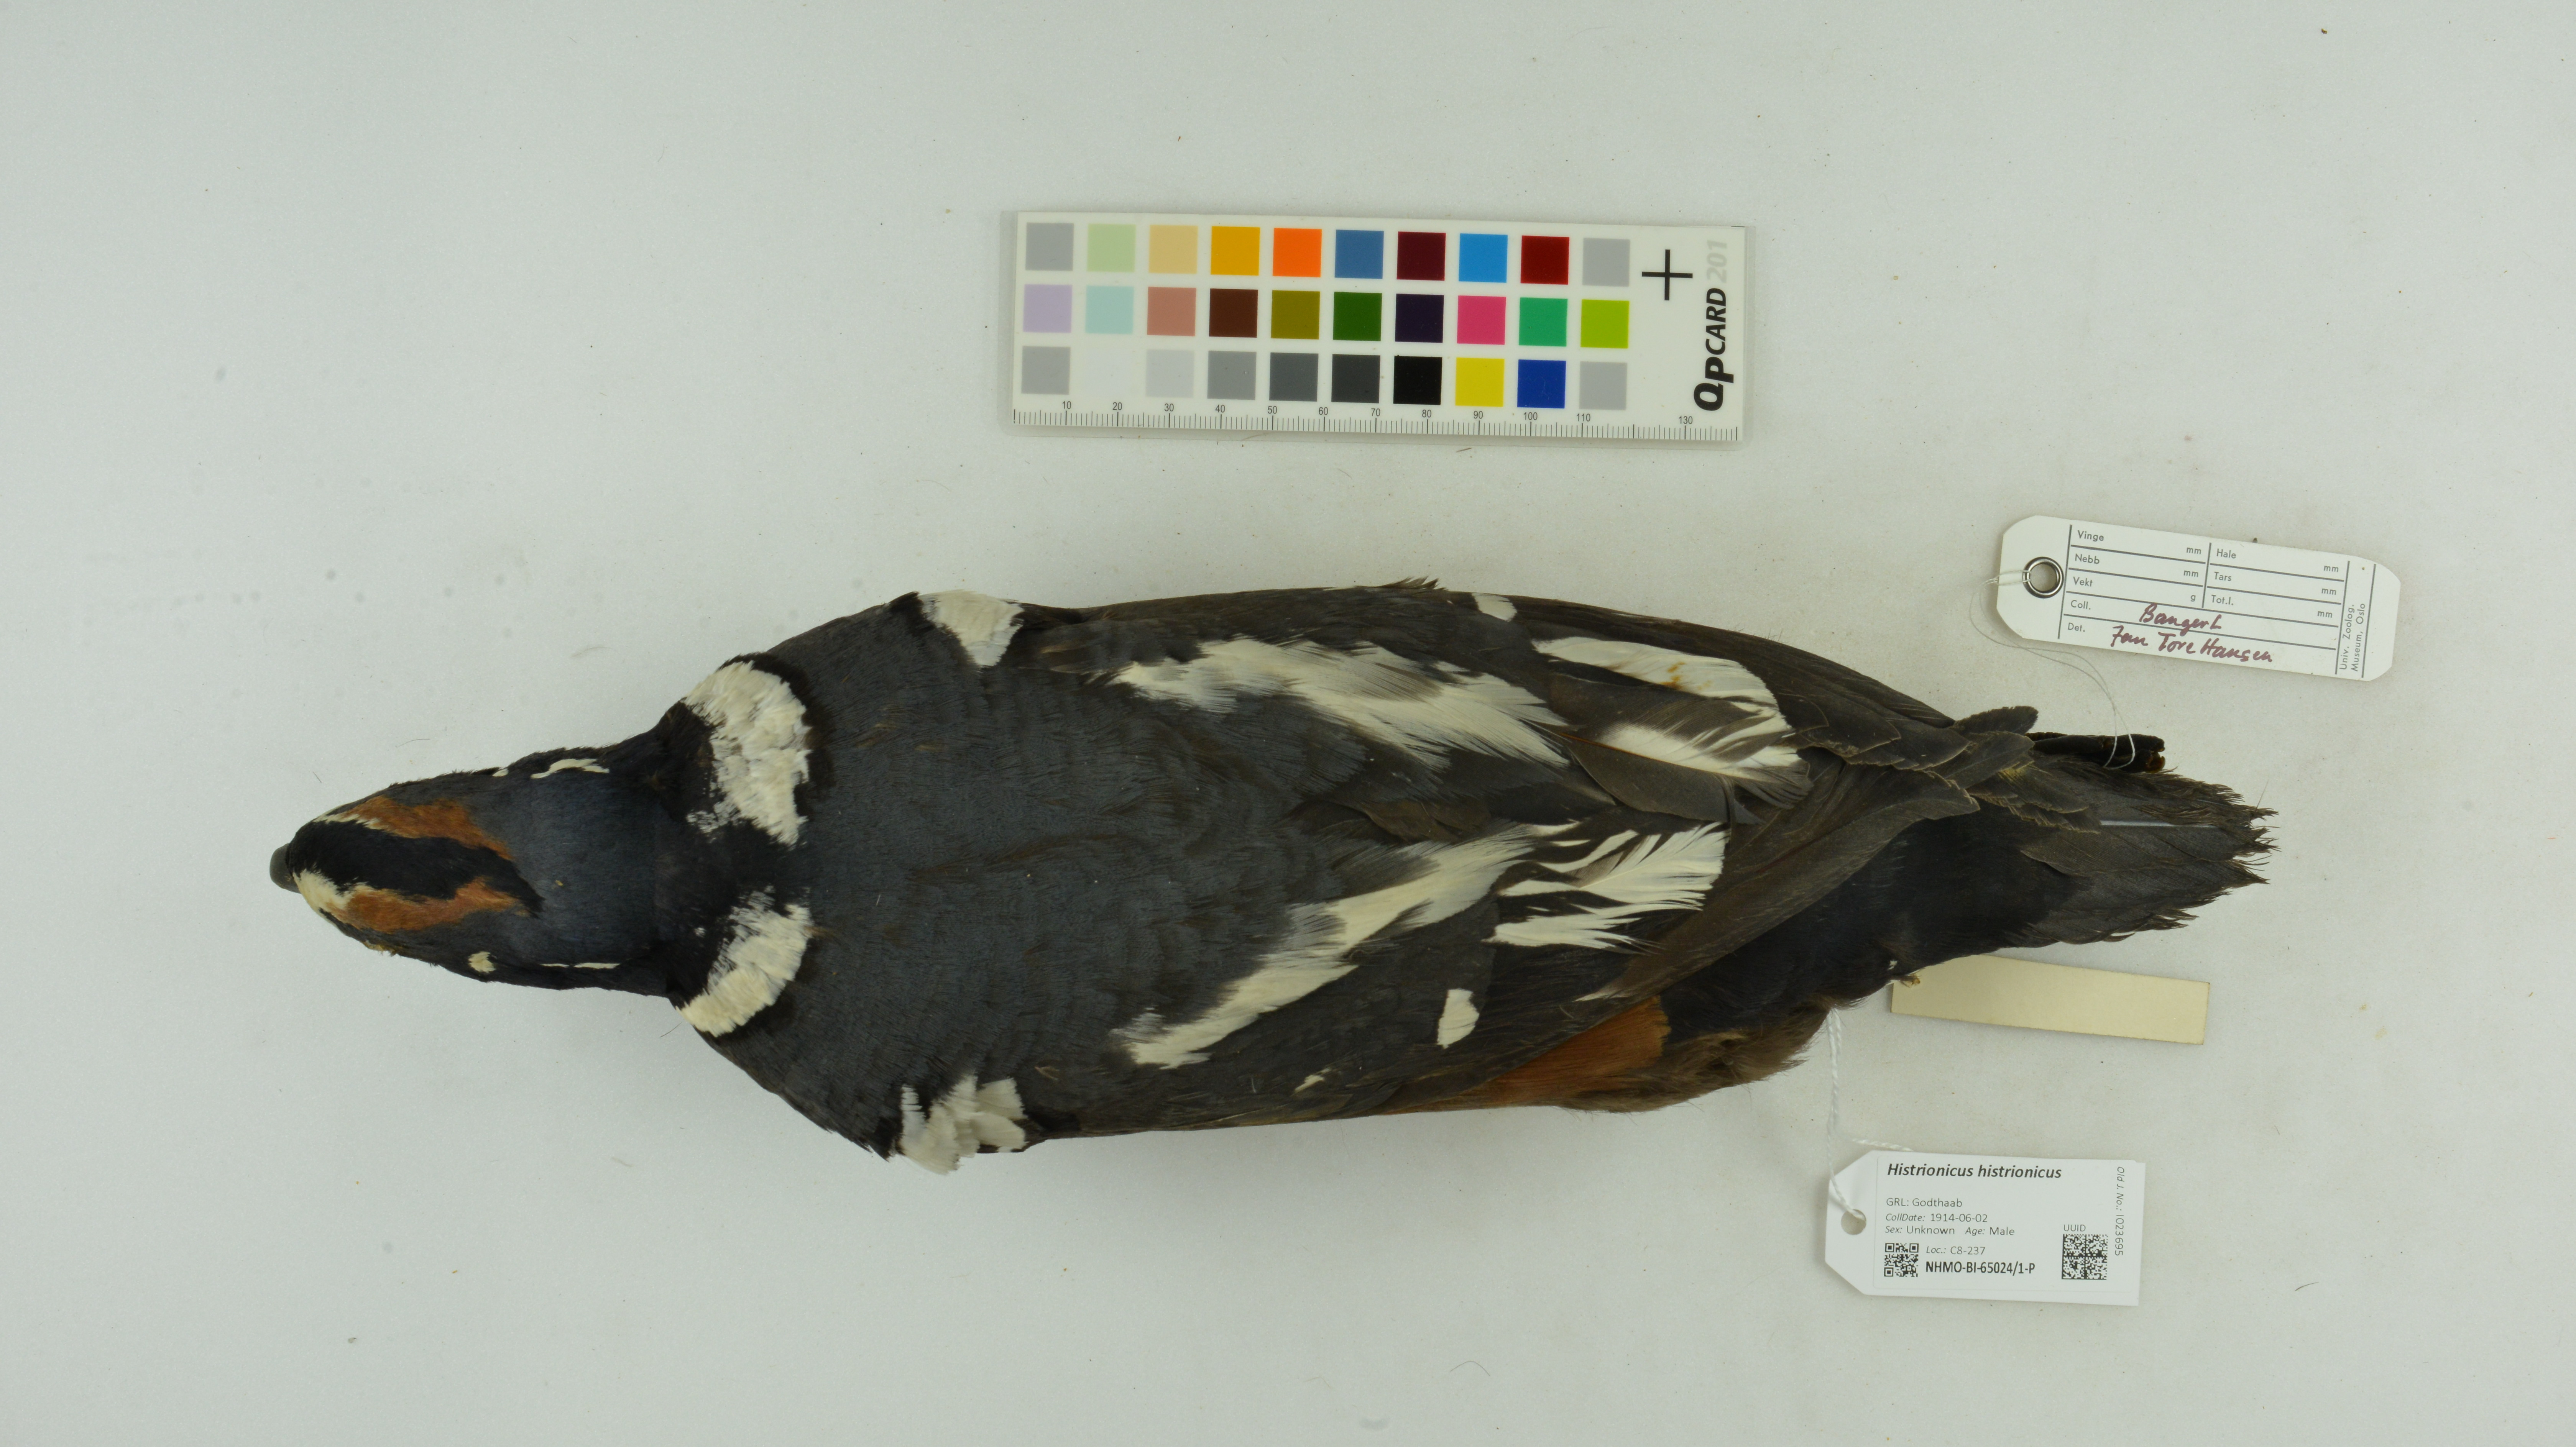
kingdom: Animalia
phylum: Chordata
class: Aves
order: Anseriformes
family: Anatidae
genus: Histrionicus
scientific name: Histrionicus histrionicus
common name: Harlequin duck
